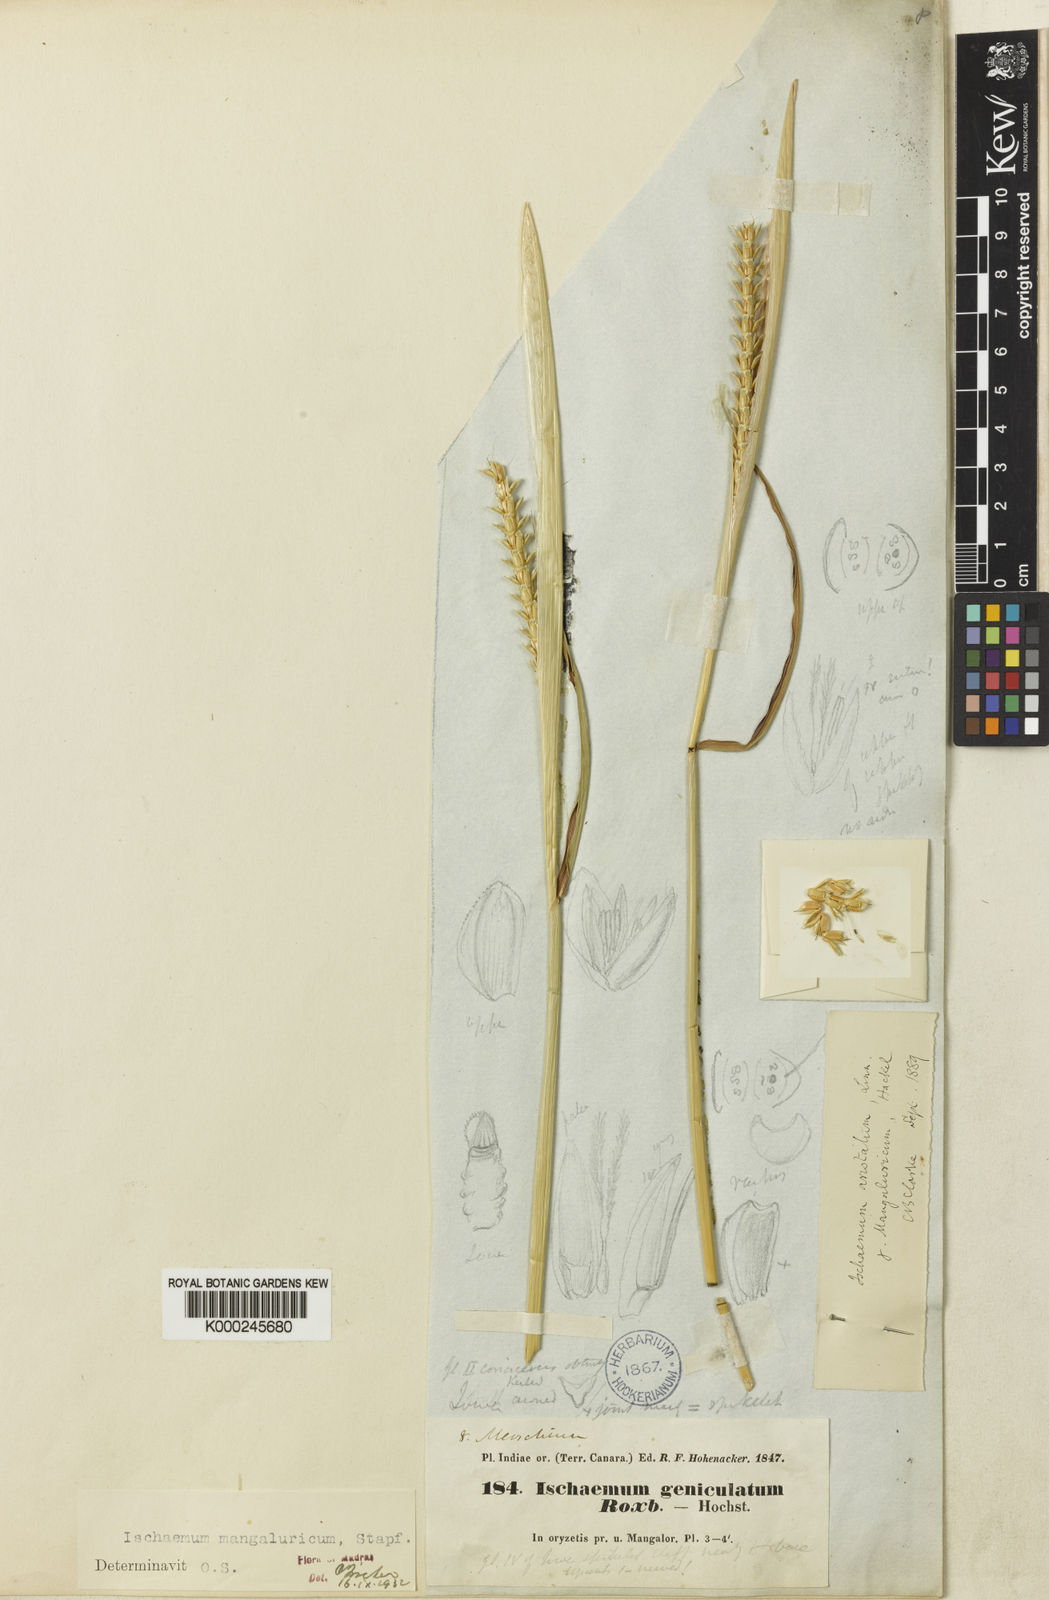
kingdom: Plantae
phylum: Tracheophyta
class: Liliopsida
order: Poales
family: Poaceae
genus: Ischaemum
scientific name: Ischaemum barbatum
